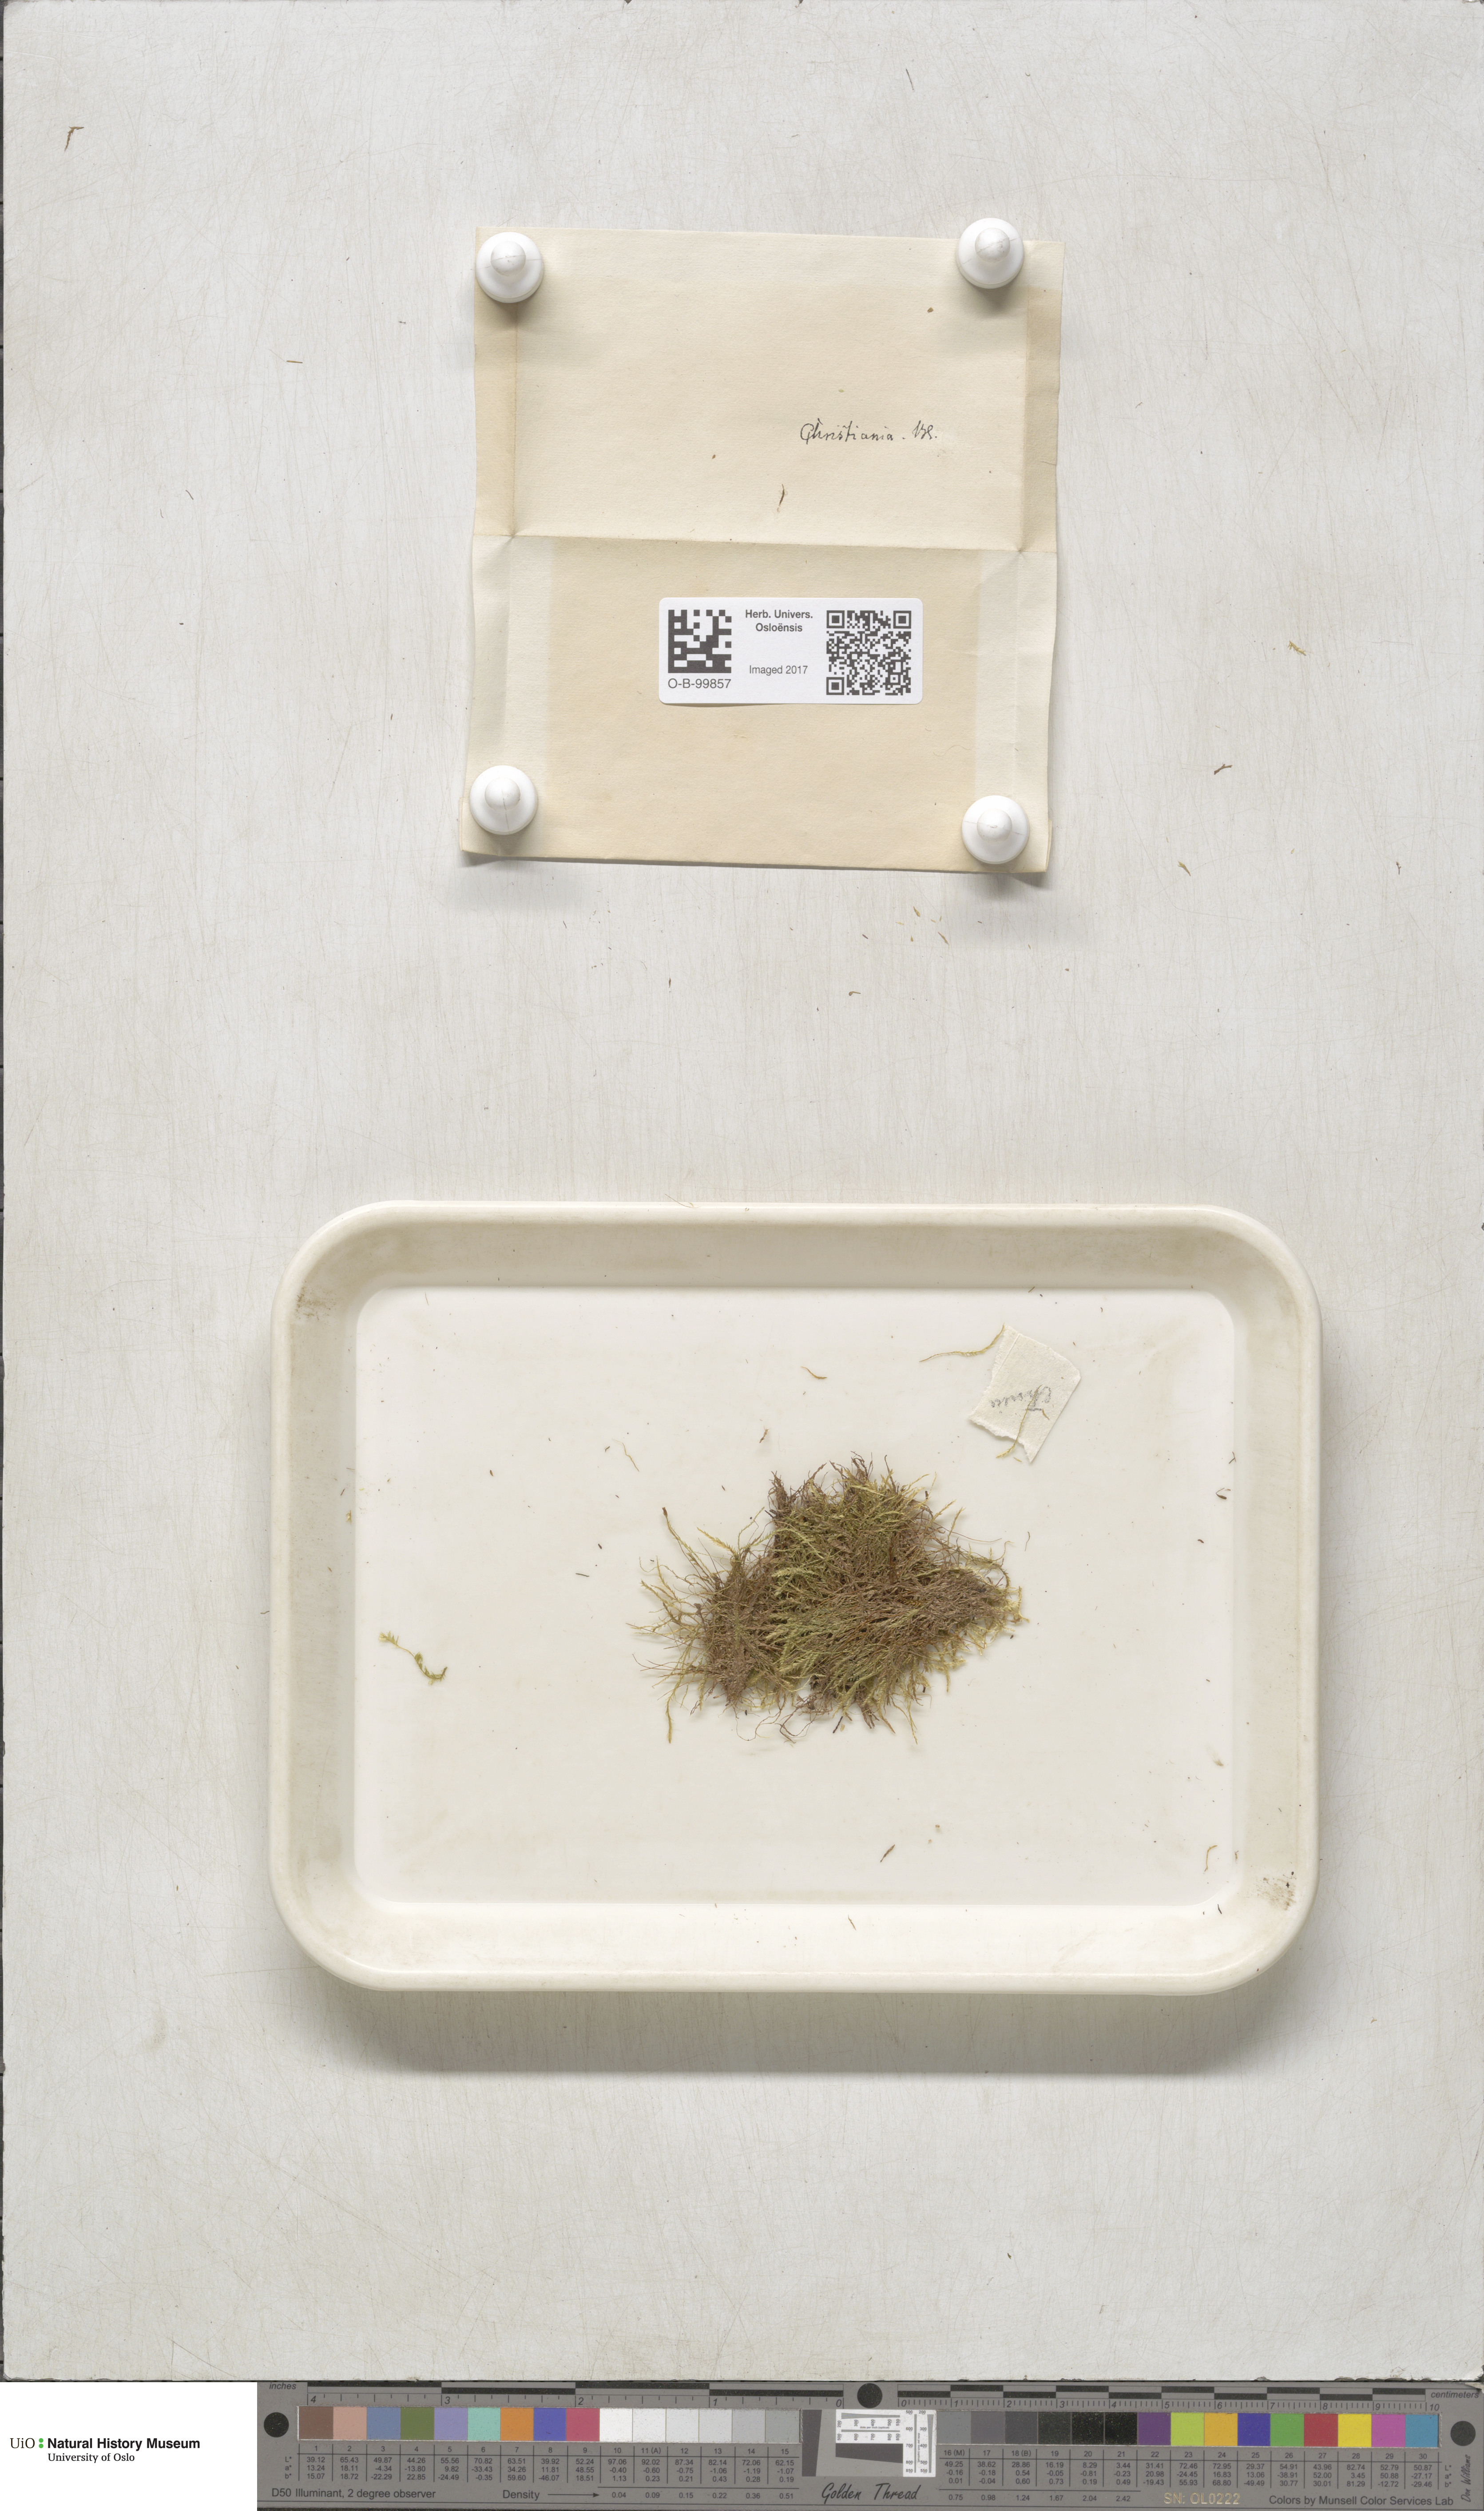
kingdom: Plantae
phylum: Bryophyta
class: Bryopsida
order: Hypnales
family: Plagiotheciaceae
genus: Plagiothecium
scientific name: Plagiothecium denticulatum
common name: Dented silk moss
